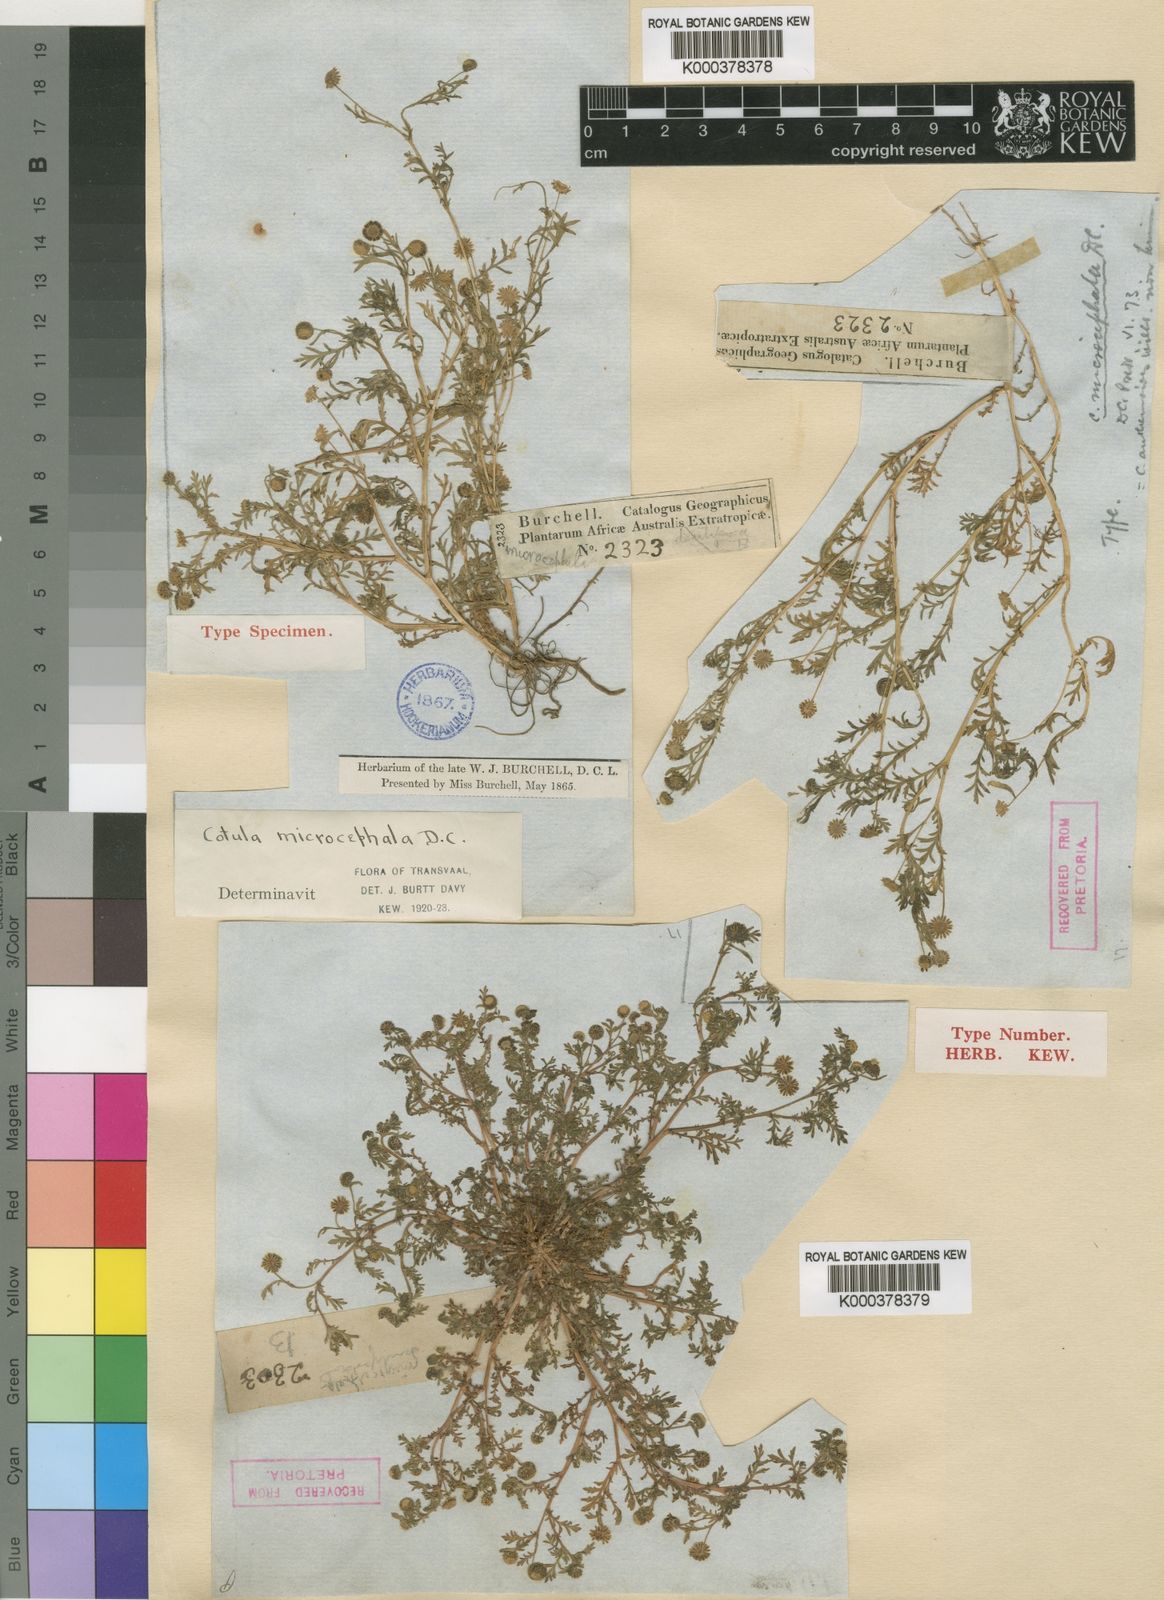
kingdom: Plantae
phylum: Tracheophyta
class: Magnoliopsida
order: Asterales
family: Asteraceae
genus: Cotula
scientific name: Cotula anthemoides
